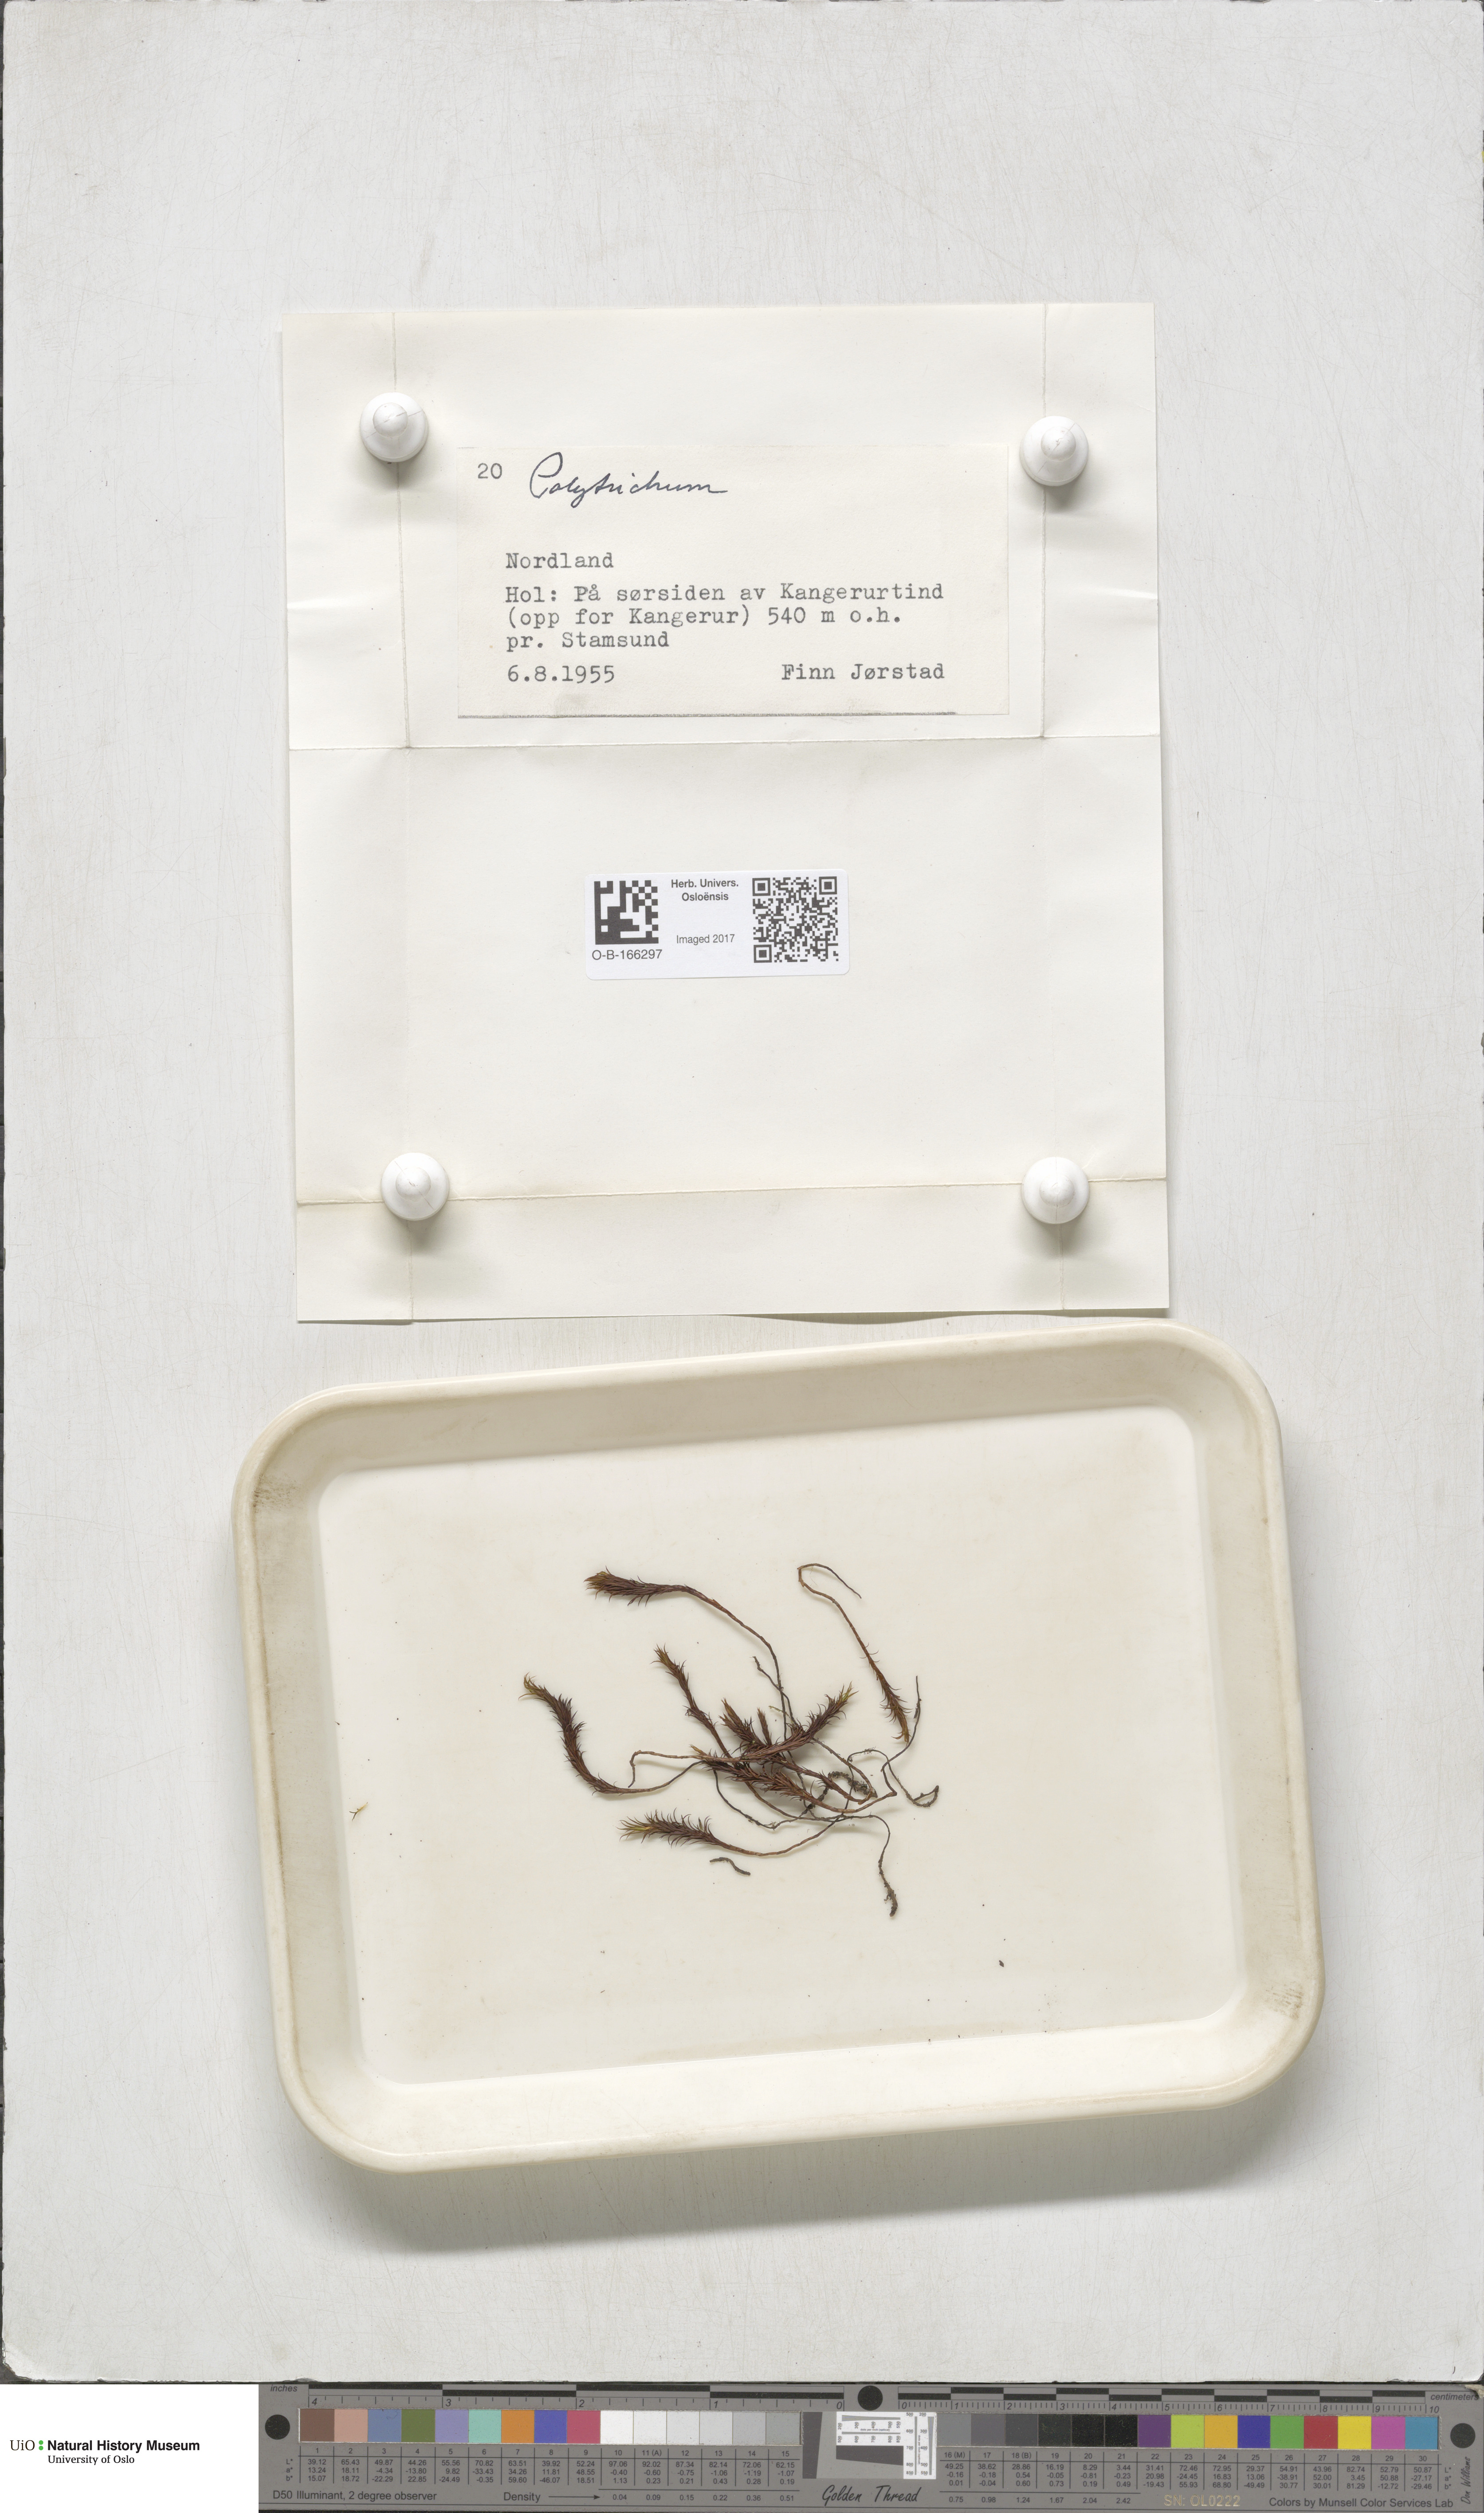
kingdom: Plantae
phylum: Bryophyta
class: Polytrichopsida
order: Polytrichales
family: Polytrichaceae
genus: Polytrichum
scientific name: Polytrichum
